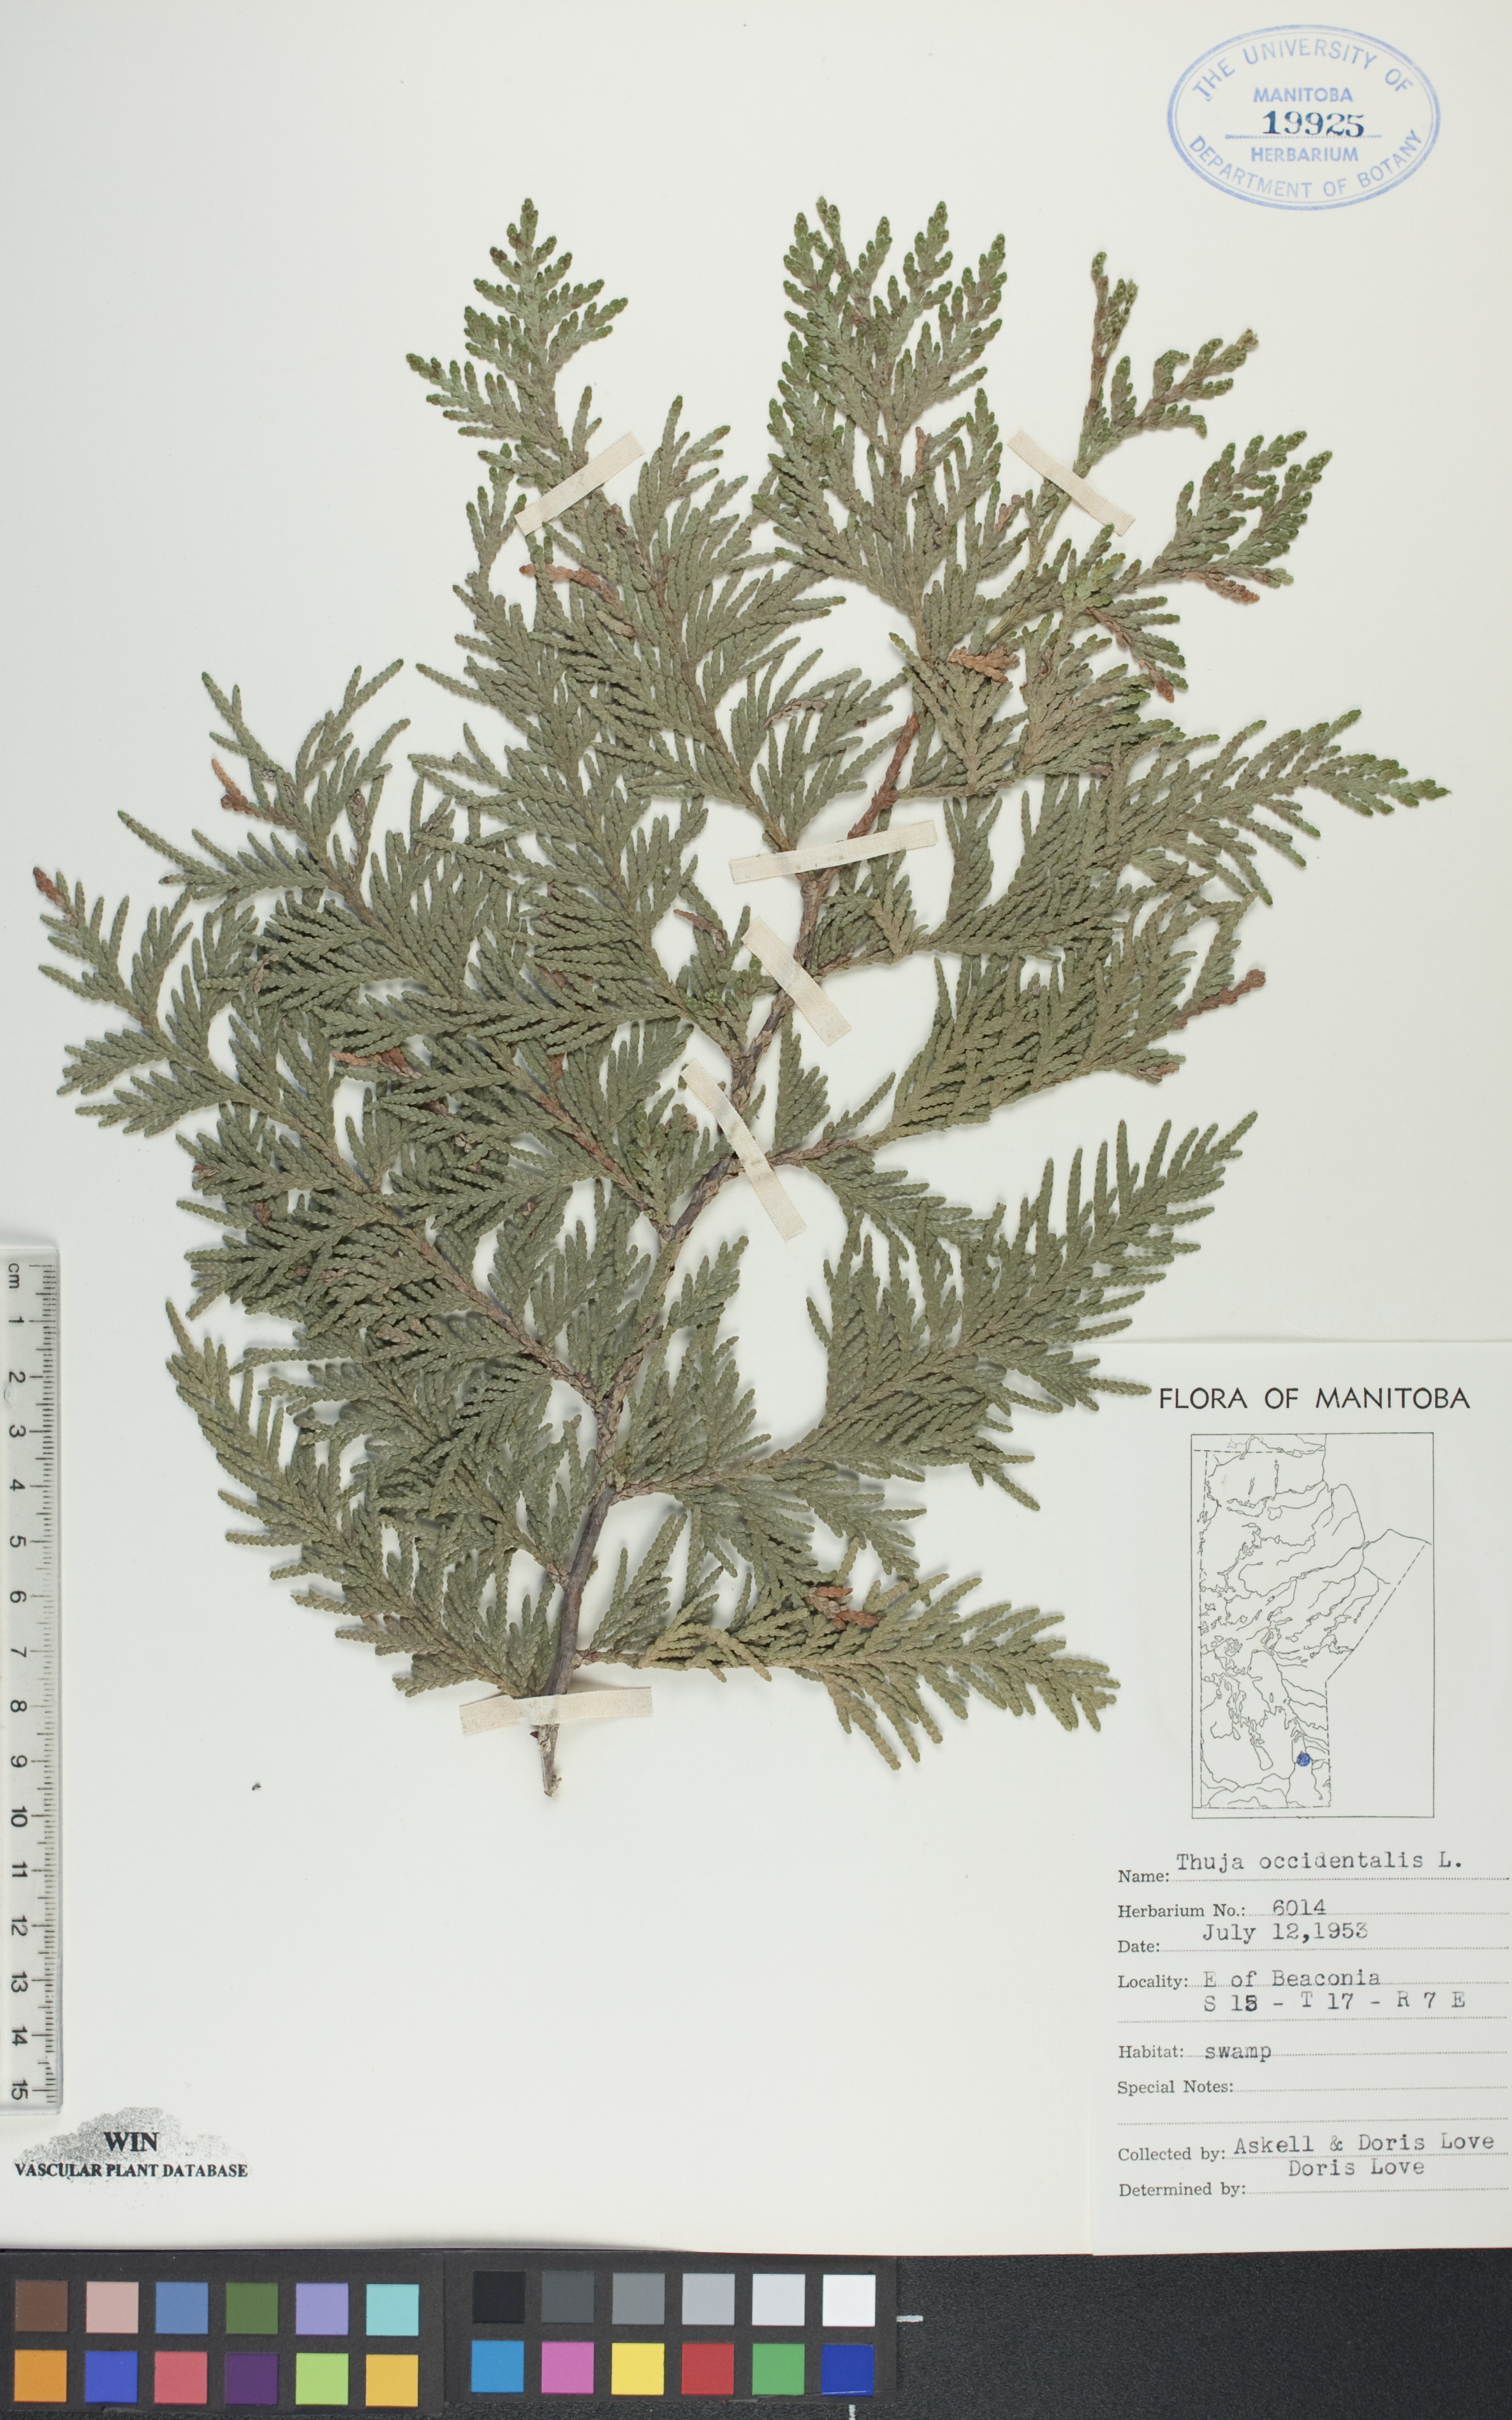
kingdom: Plantae
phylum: Tracheophyta
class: Pinopsida
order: Pinales
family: Cupressaceae
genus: Thuja
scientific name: Thuja occidentalis
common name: Northern white-cedar
